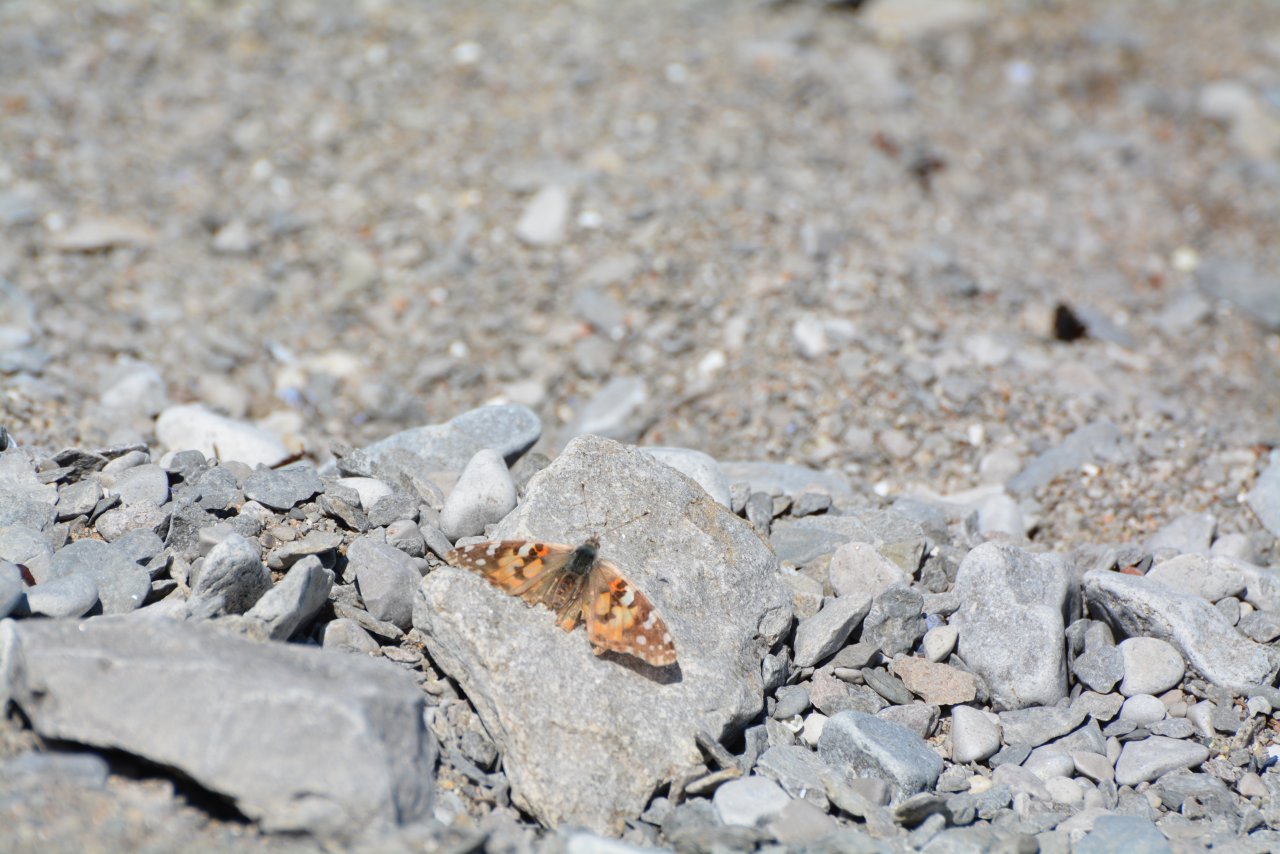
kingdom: Animalia
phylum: Arthropoda
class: Insecta
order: Lepidoptera
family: Nymphalidae
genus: Vanessa
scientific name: Vanessa cardui
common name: Painted Lady
